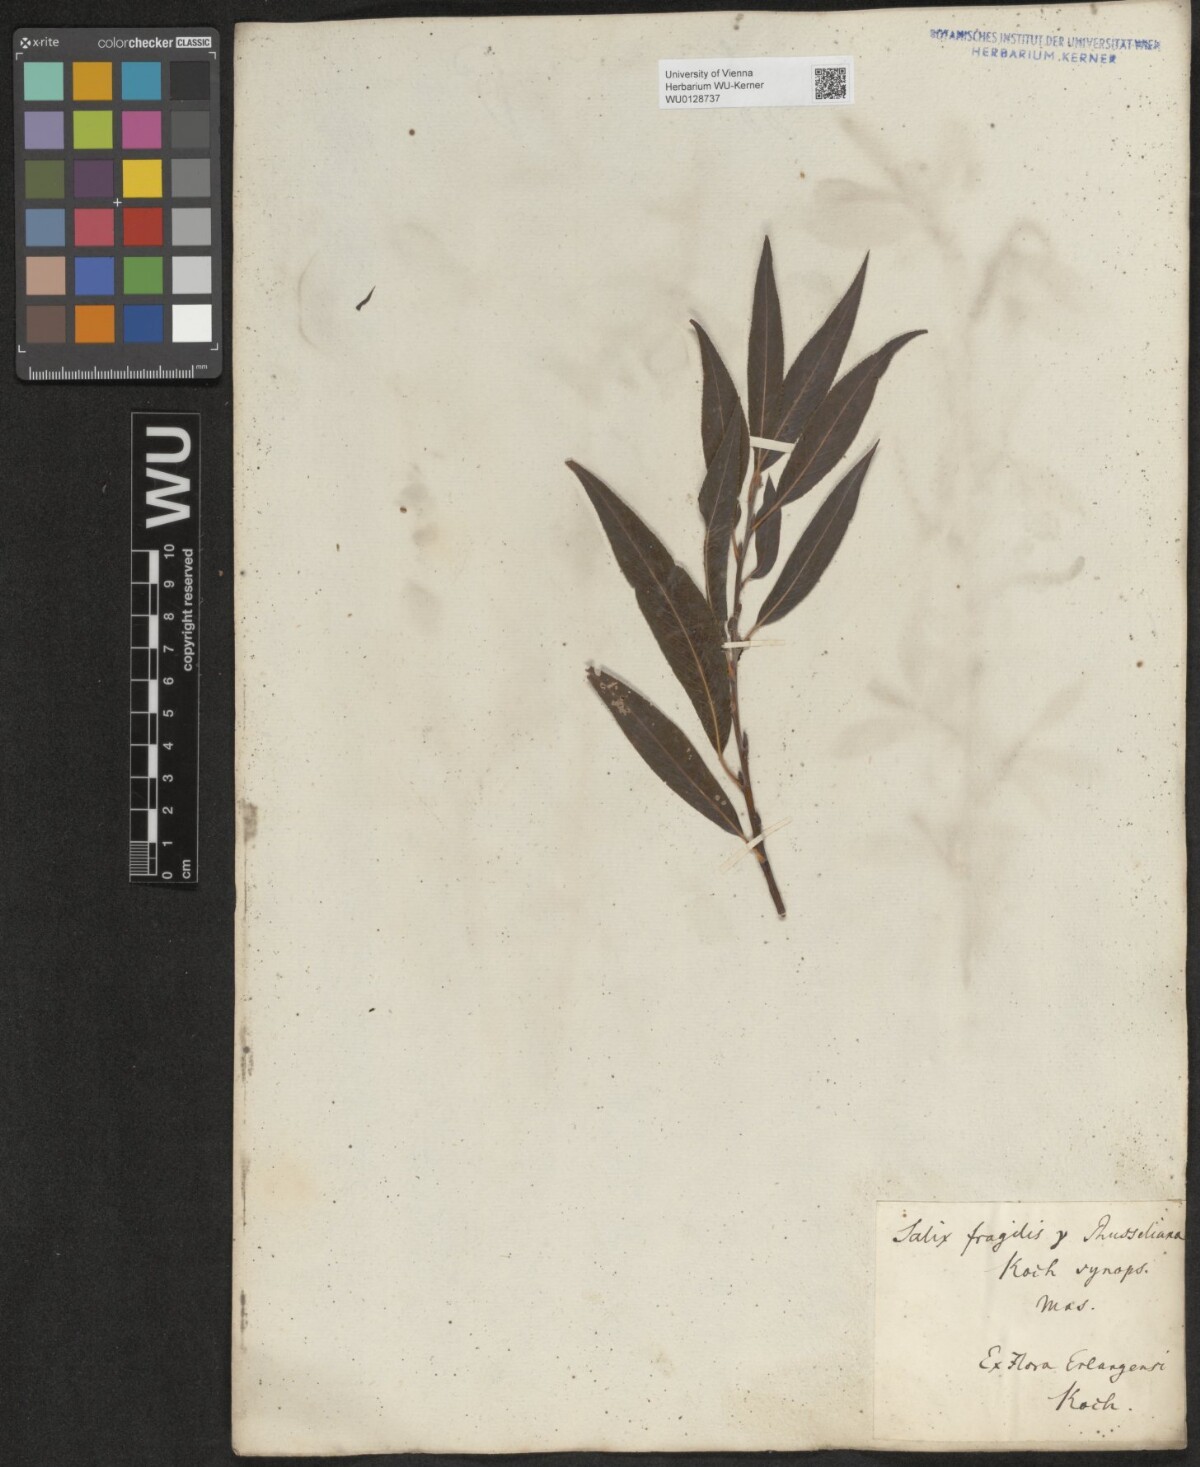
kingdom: Plantae
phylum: Tracheophyta
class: Magnoliopsida
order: Malpighiales
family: Salicaceae
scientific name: Salicaceae
